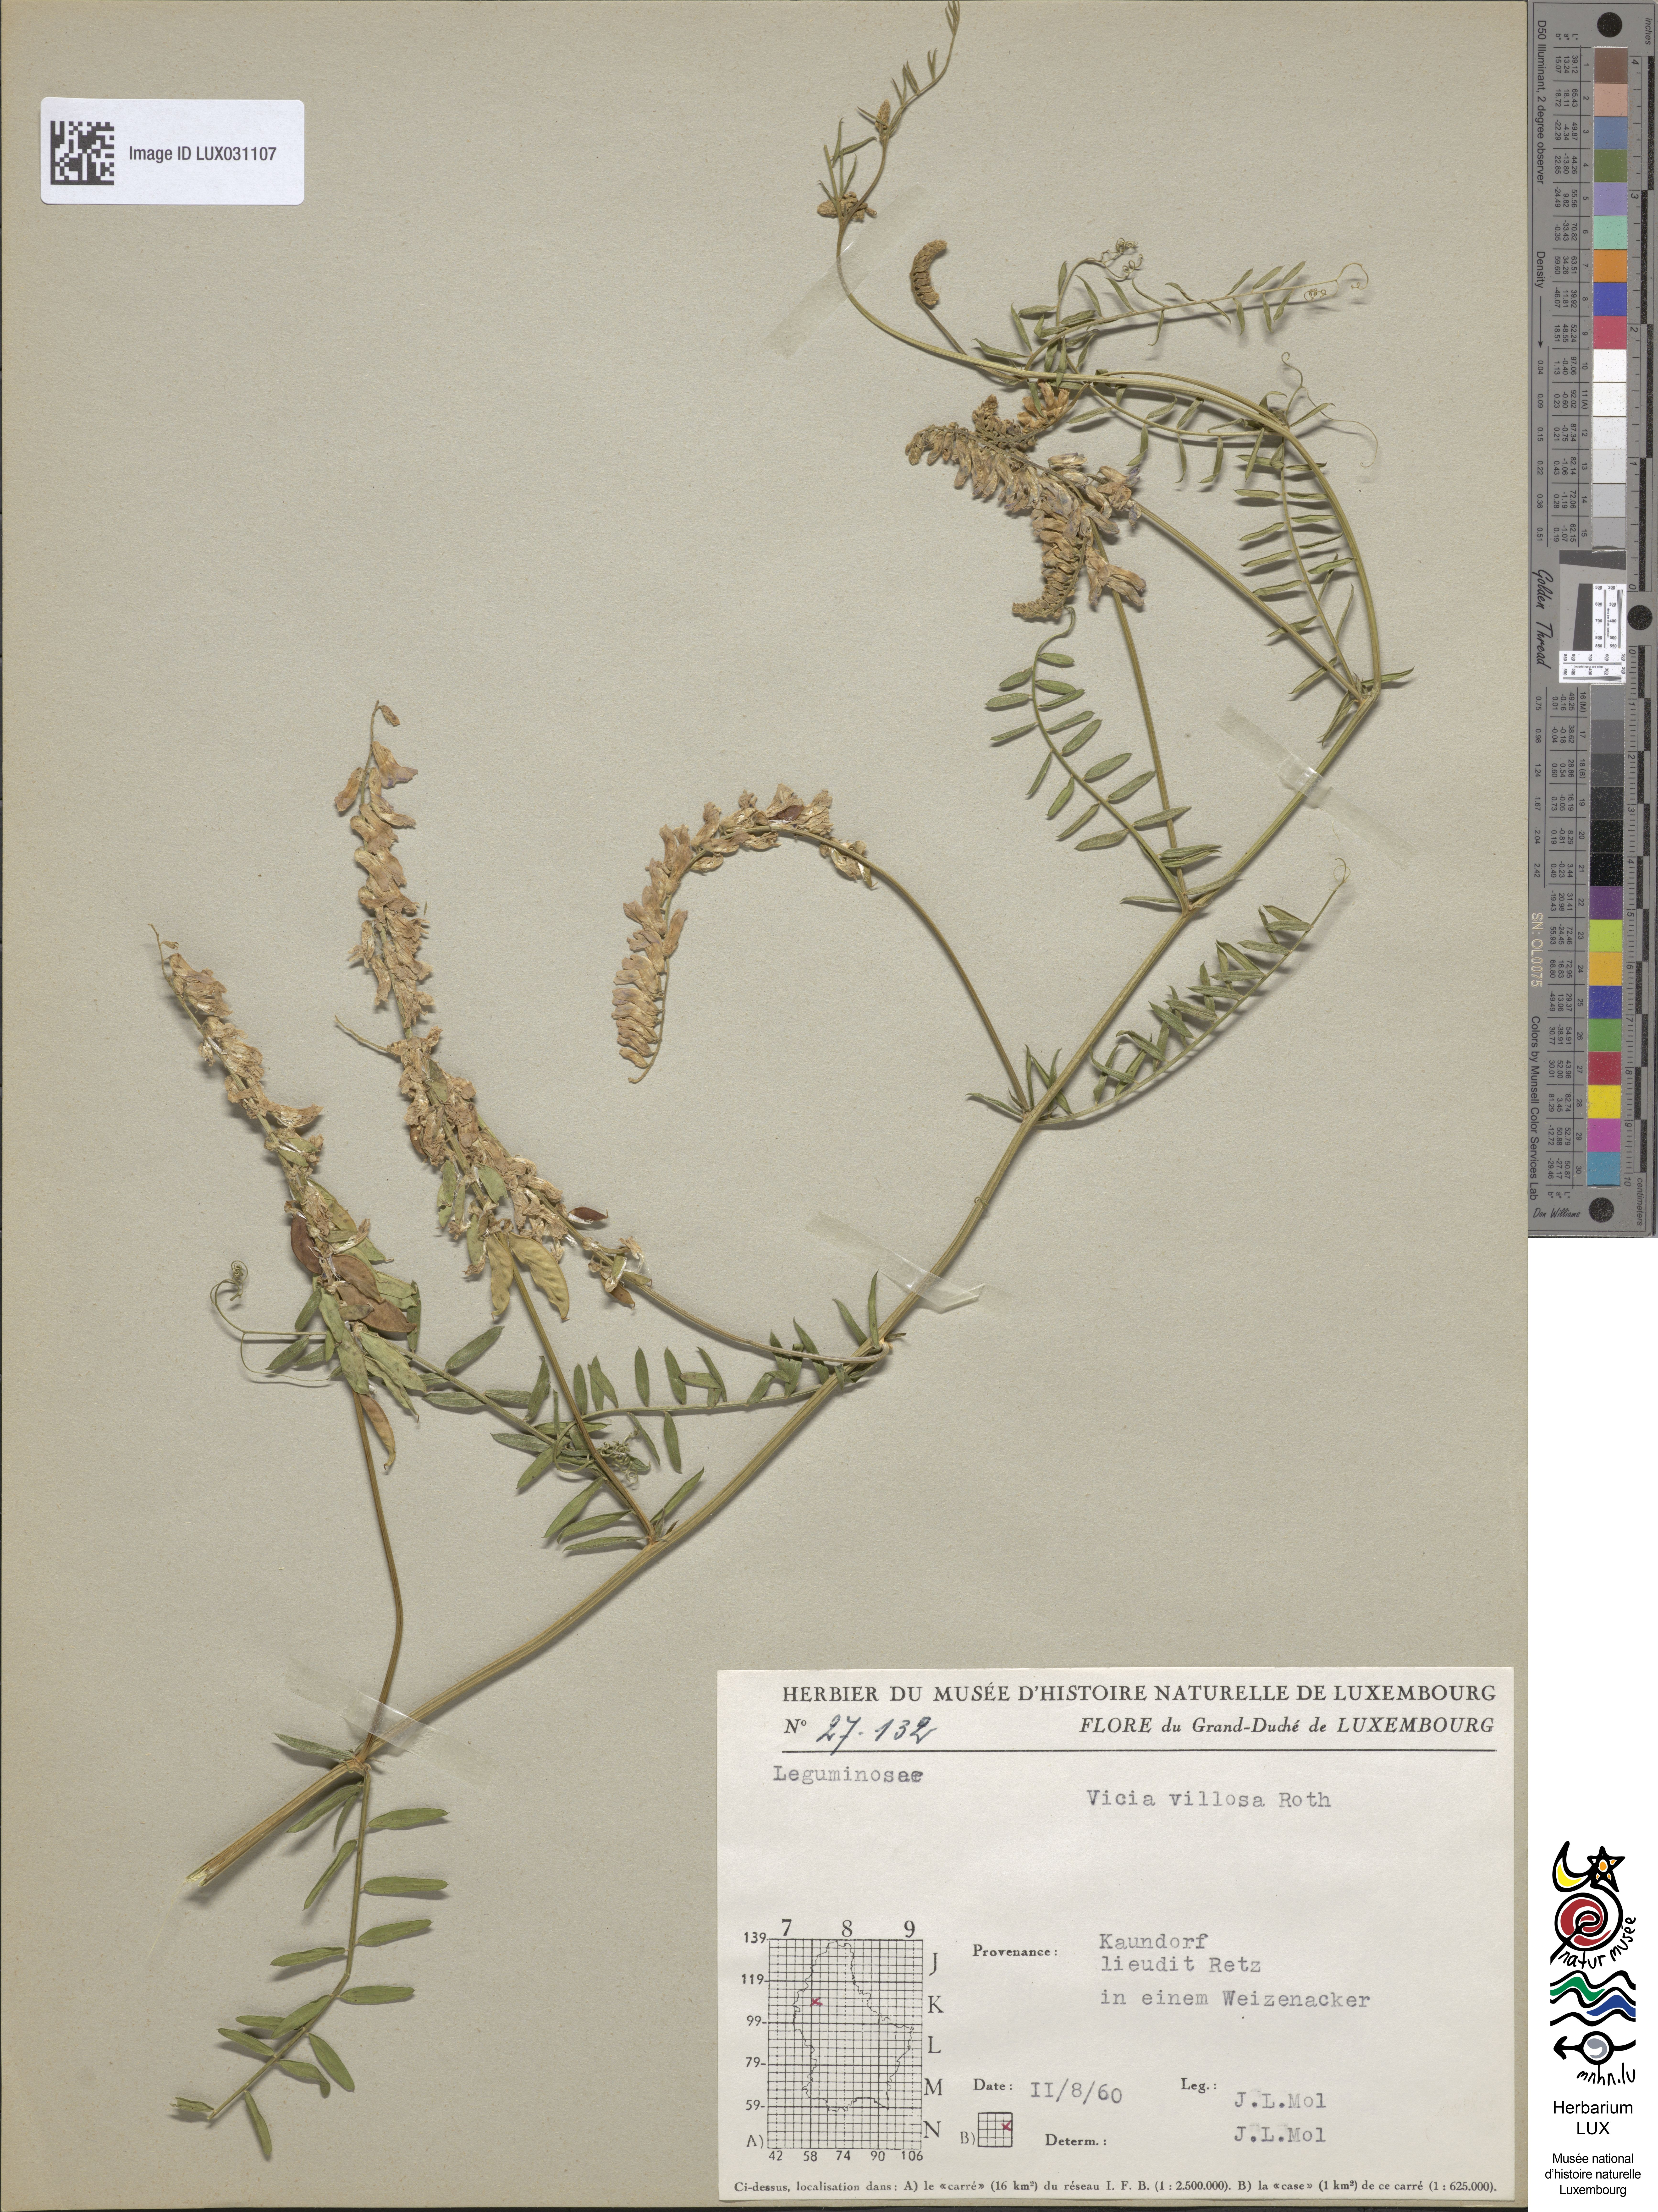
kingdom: Plantae
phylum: Tracheophyta
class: Magnoliopsida
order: Fabales
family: Fabaceae
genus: Vicia
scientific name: Vicia villosa
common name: Fodder vetch
